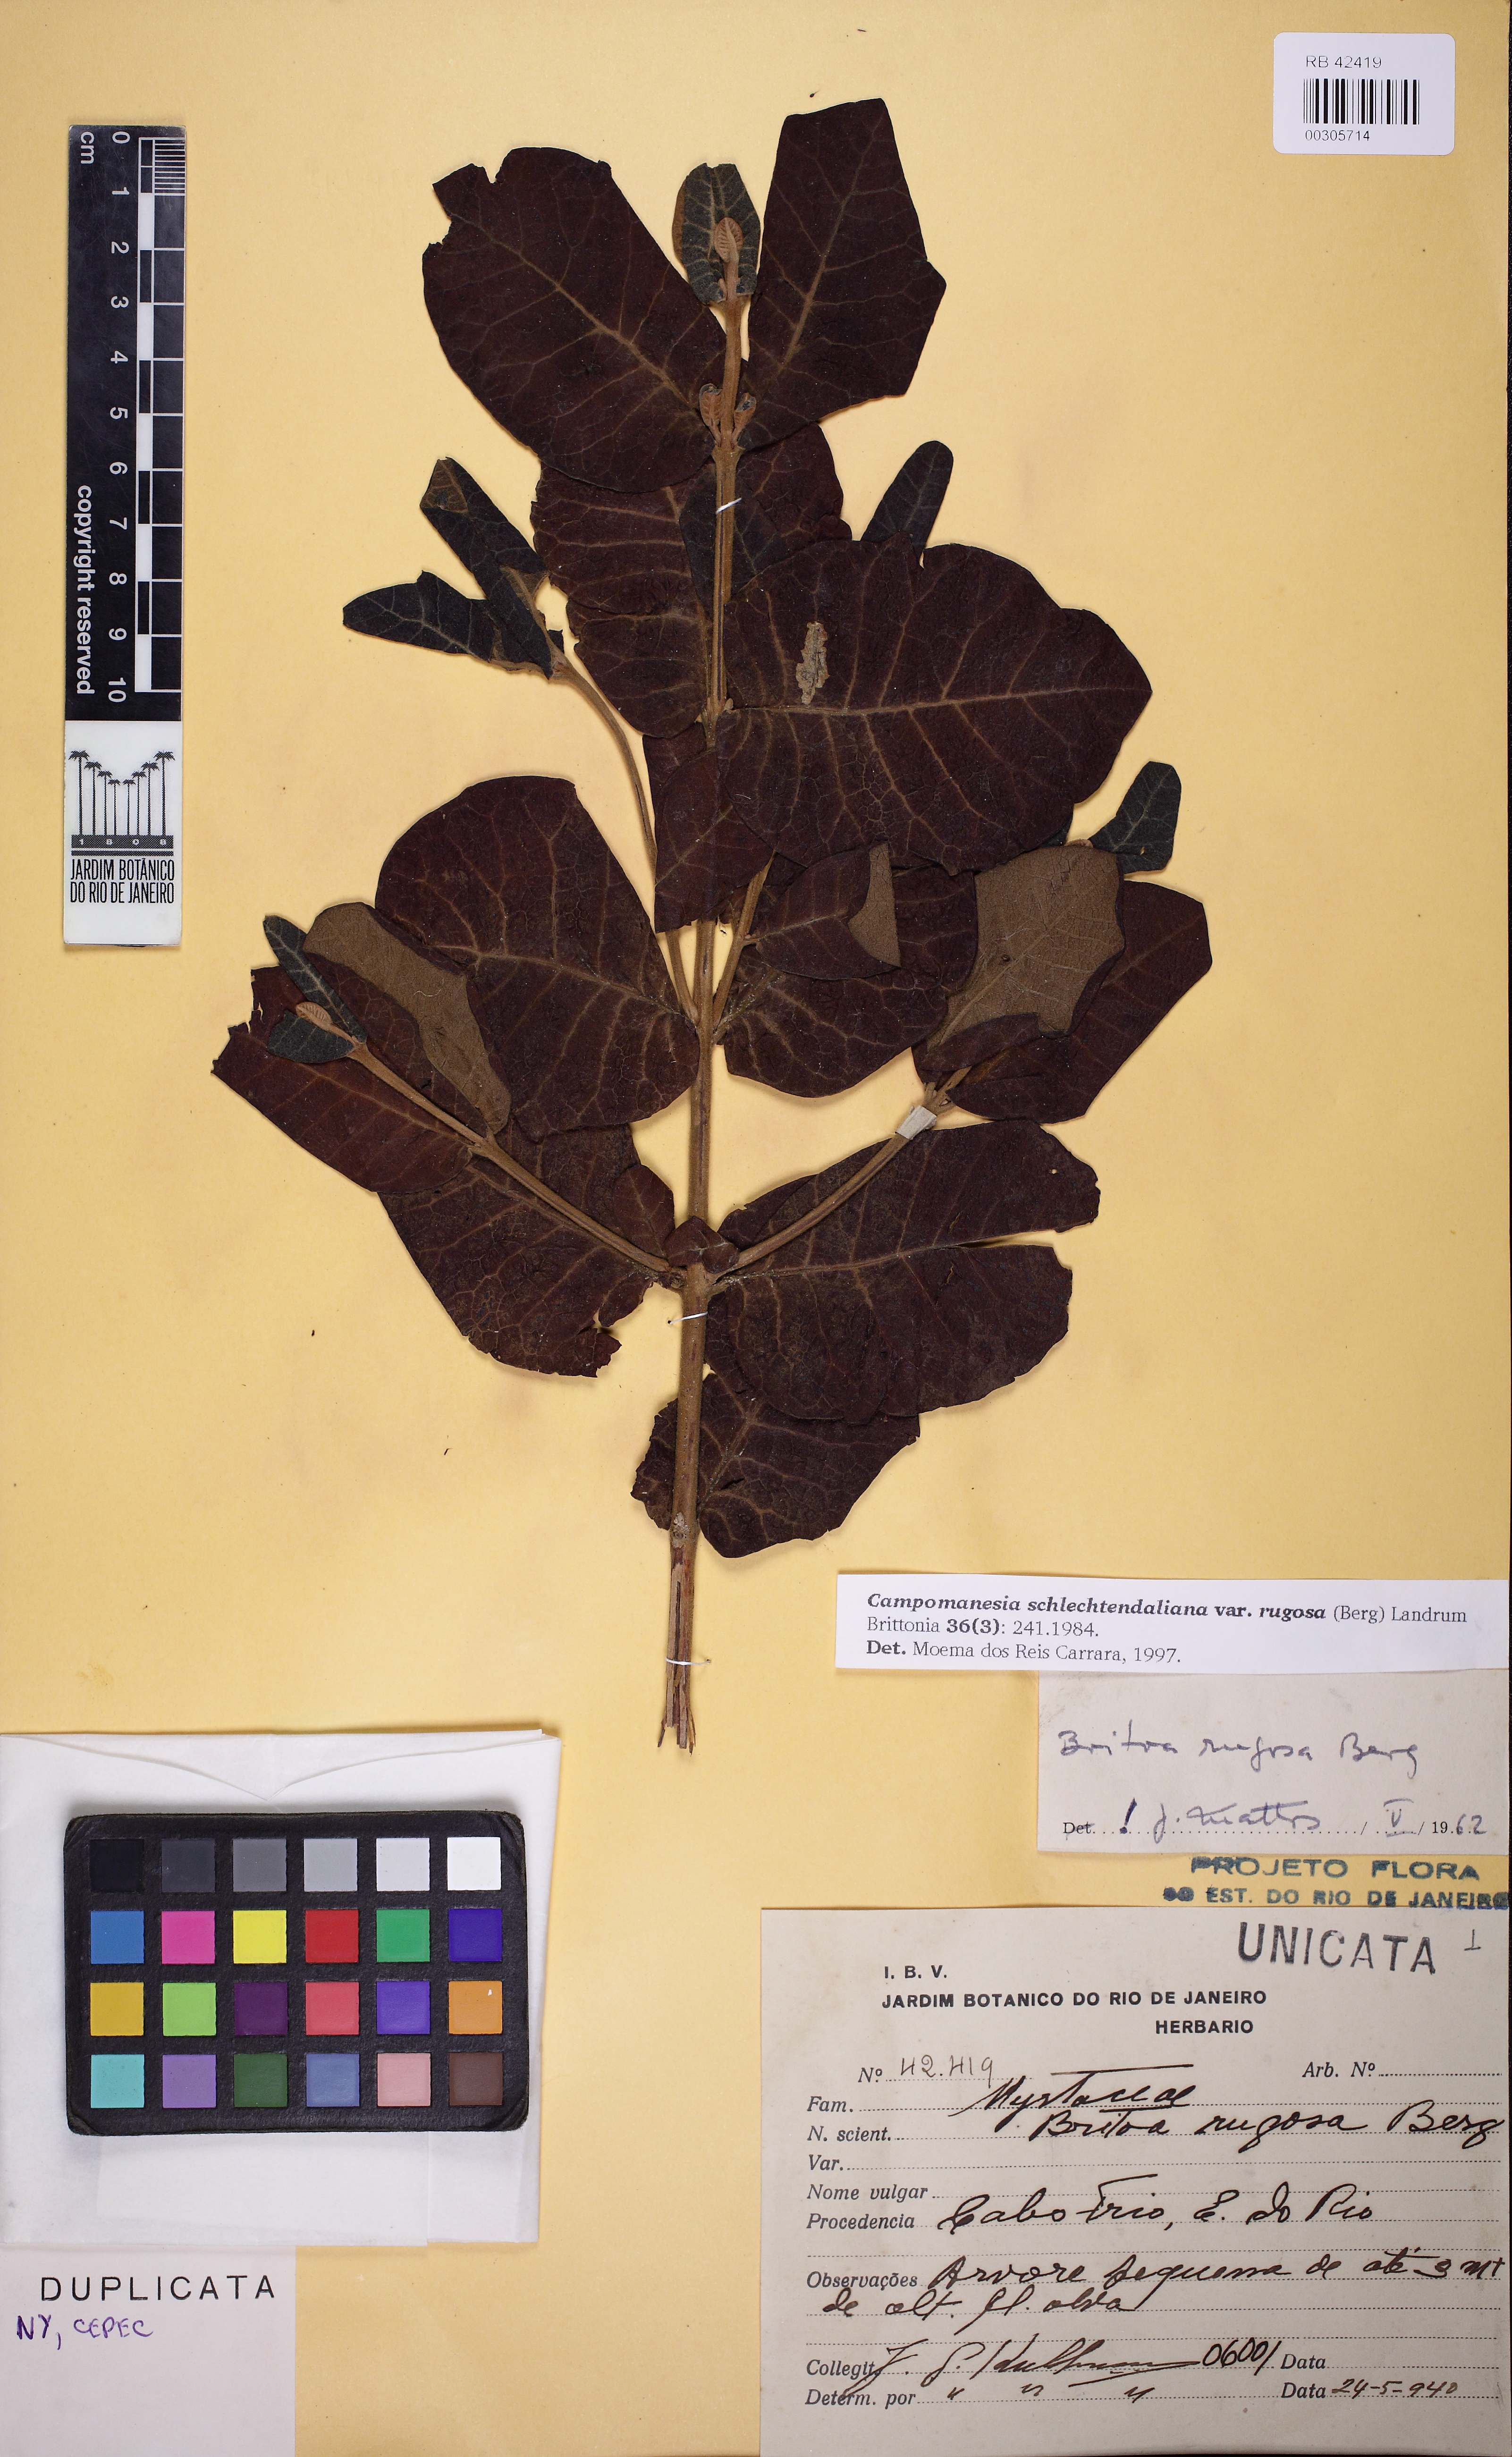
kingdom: Plantae
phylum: Tracheophyta
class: Magnoliopsida
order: Myrtales
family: Myrtaceae
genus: Campomanesia
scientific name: Campomanesia schlechtendaliana
